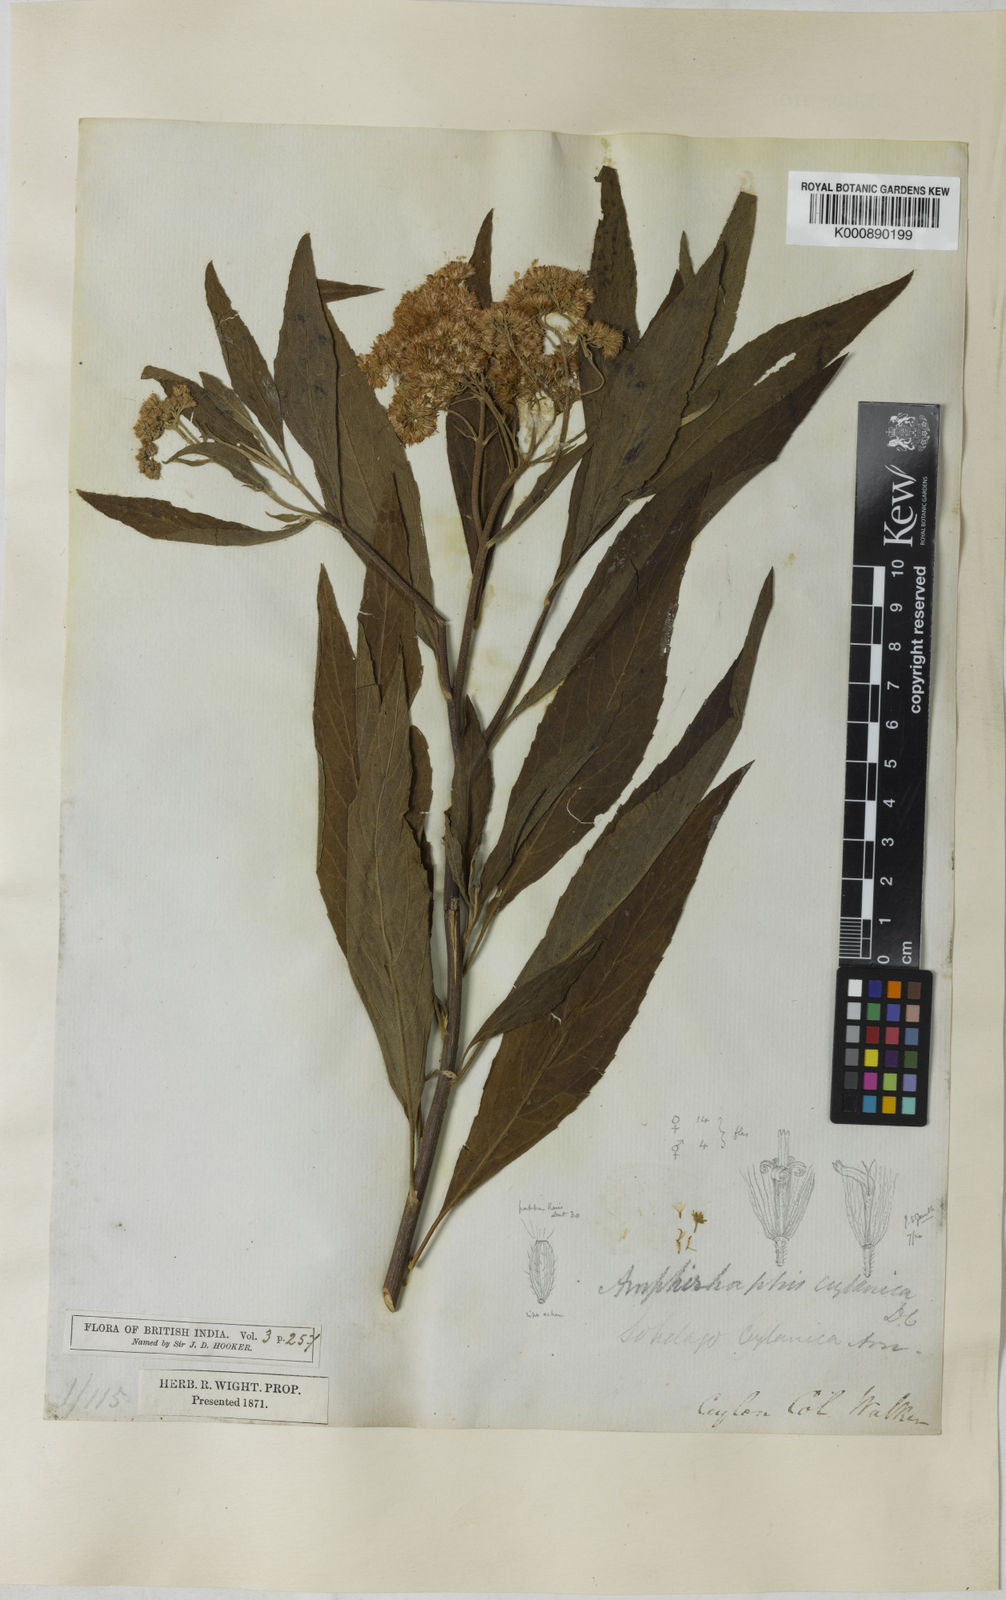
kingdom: Plantae
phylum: Tracheophyta
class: Magnoliopsida
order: Asterales
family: Asteraceae
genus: Psiadia
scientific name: Psiadia ceylanica
